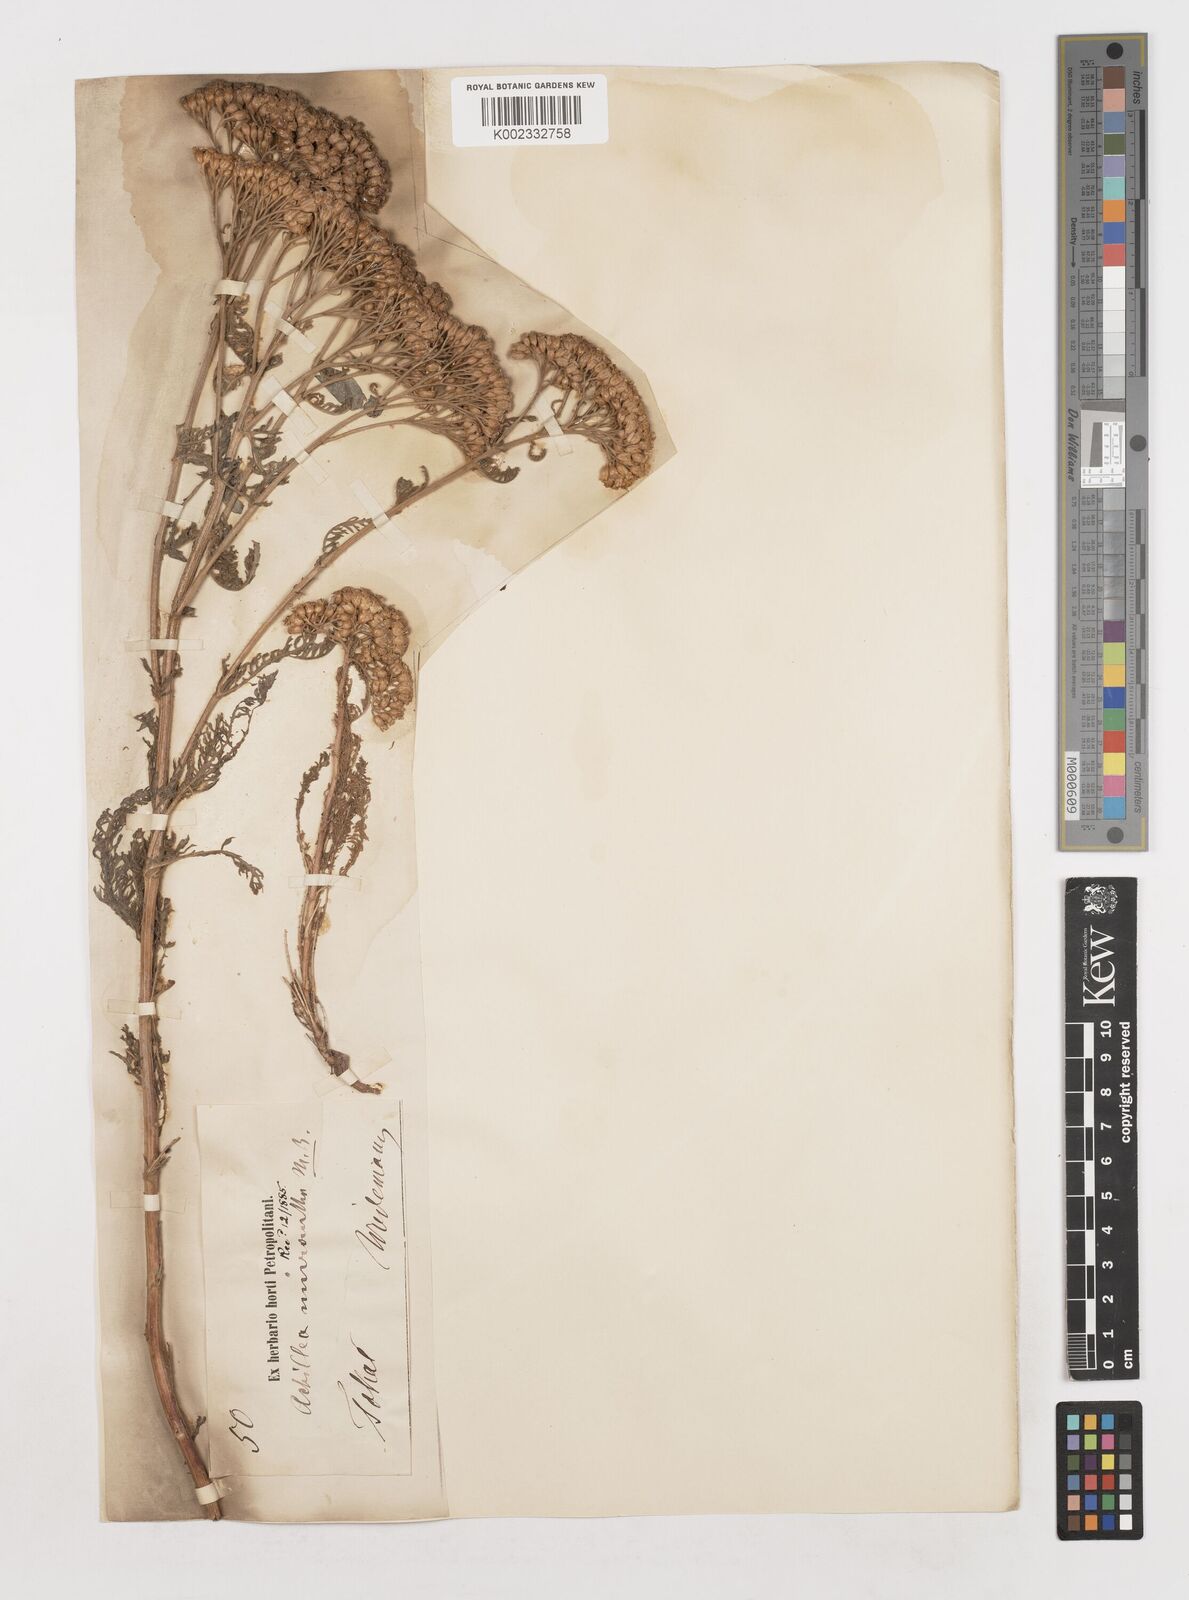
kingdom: Plantae
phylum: Tracheophyta
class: Magnoliopsida
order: Asterales
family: Asteraceae
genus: Achillea
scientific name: Achillea micrantha
